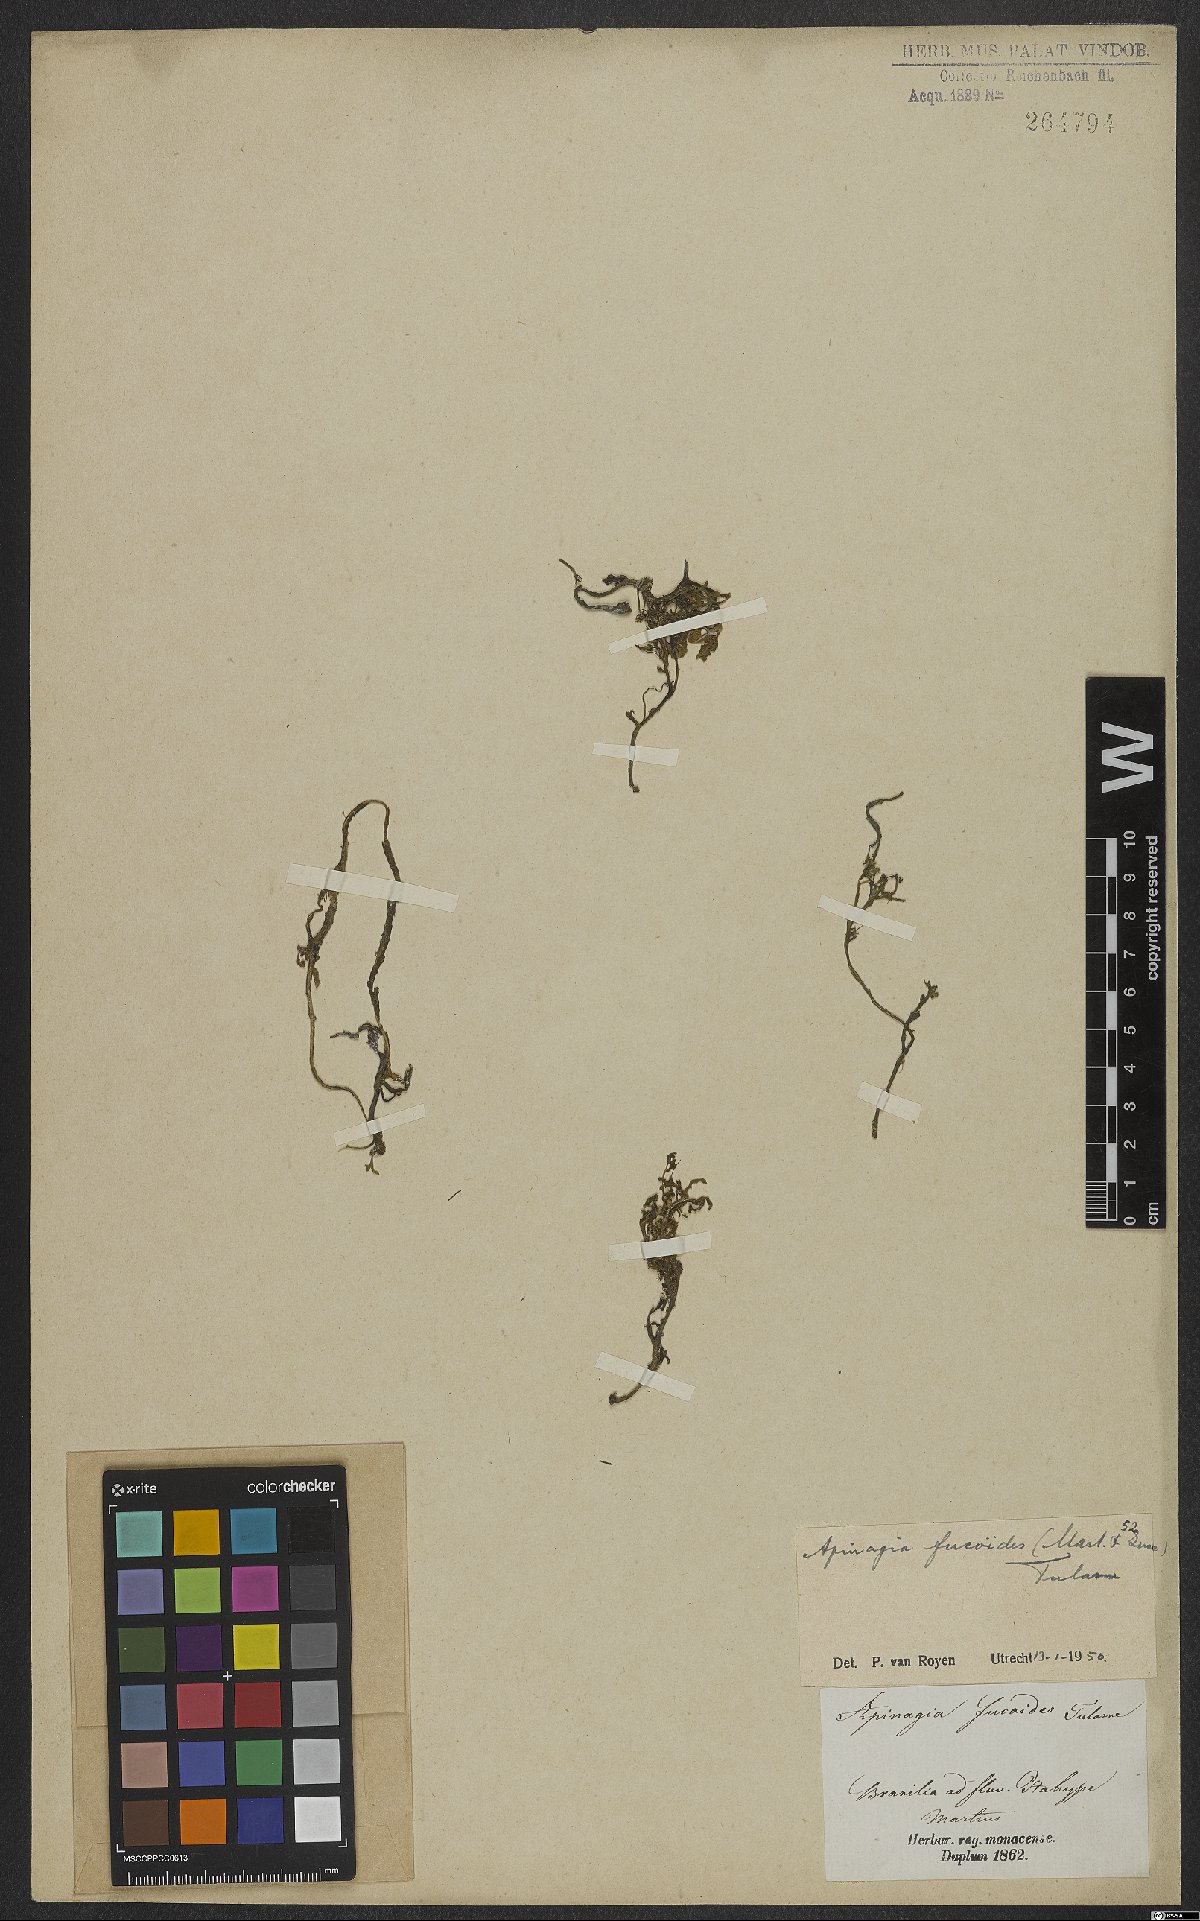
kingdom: Plantae
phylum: Tracheophyta
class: Magnoliopsida
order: Malpighiales
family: Podostemaceae
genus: Apinagia
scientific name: Apinagia fucoides
